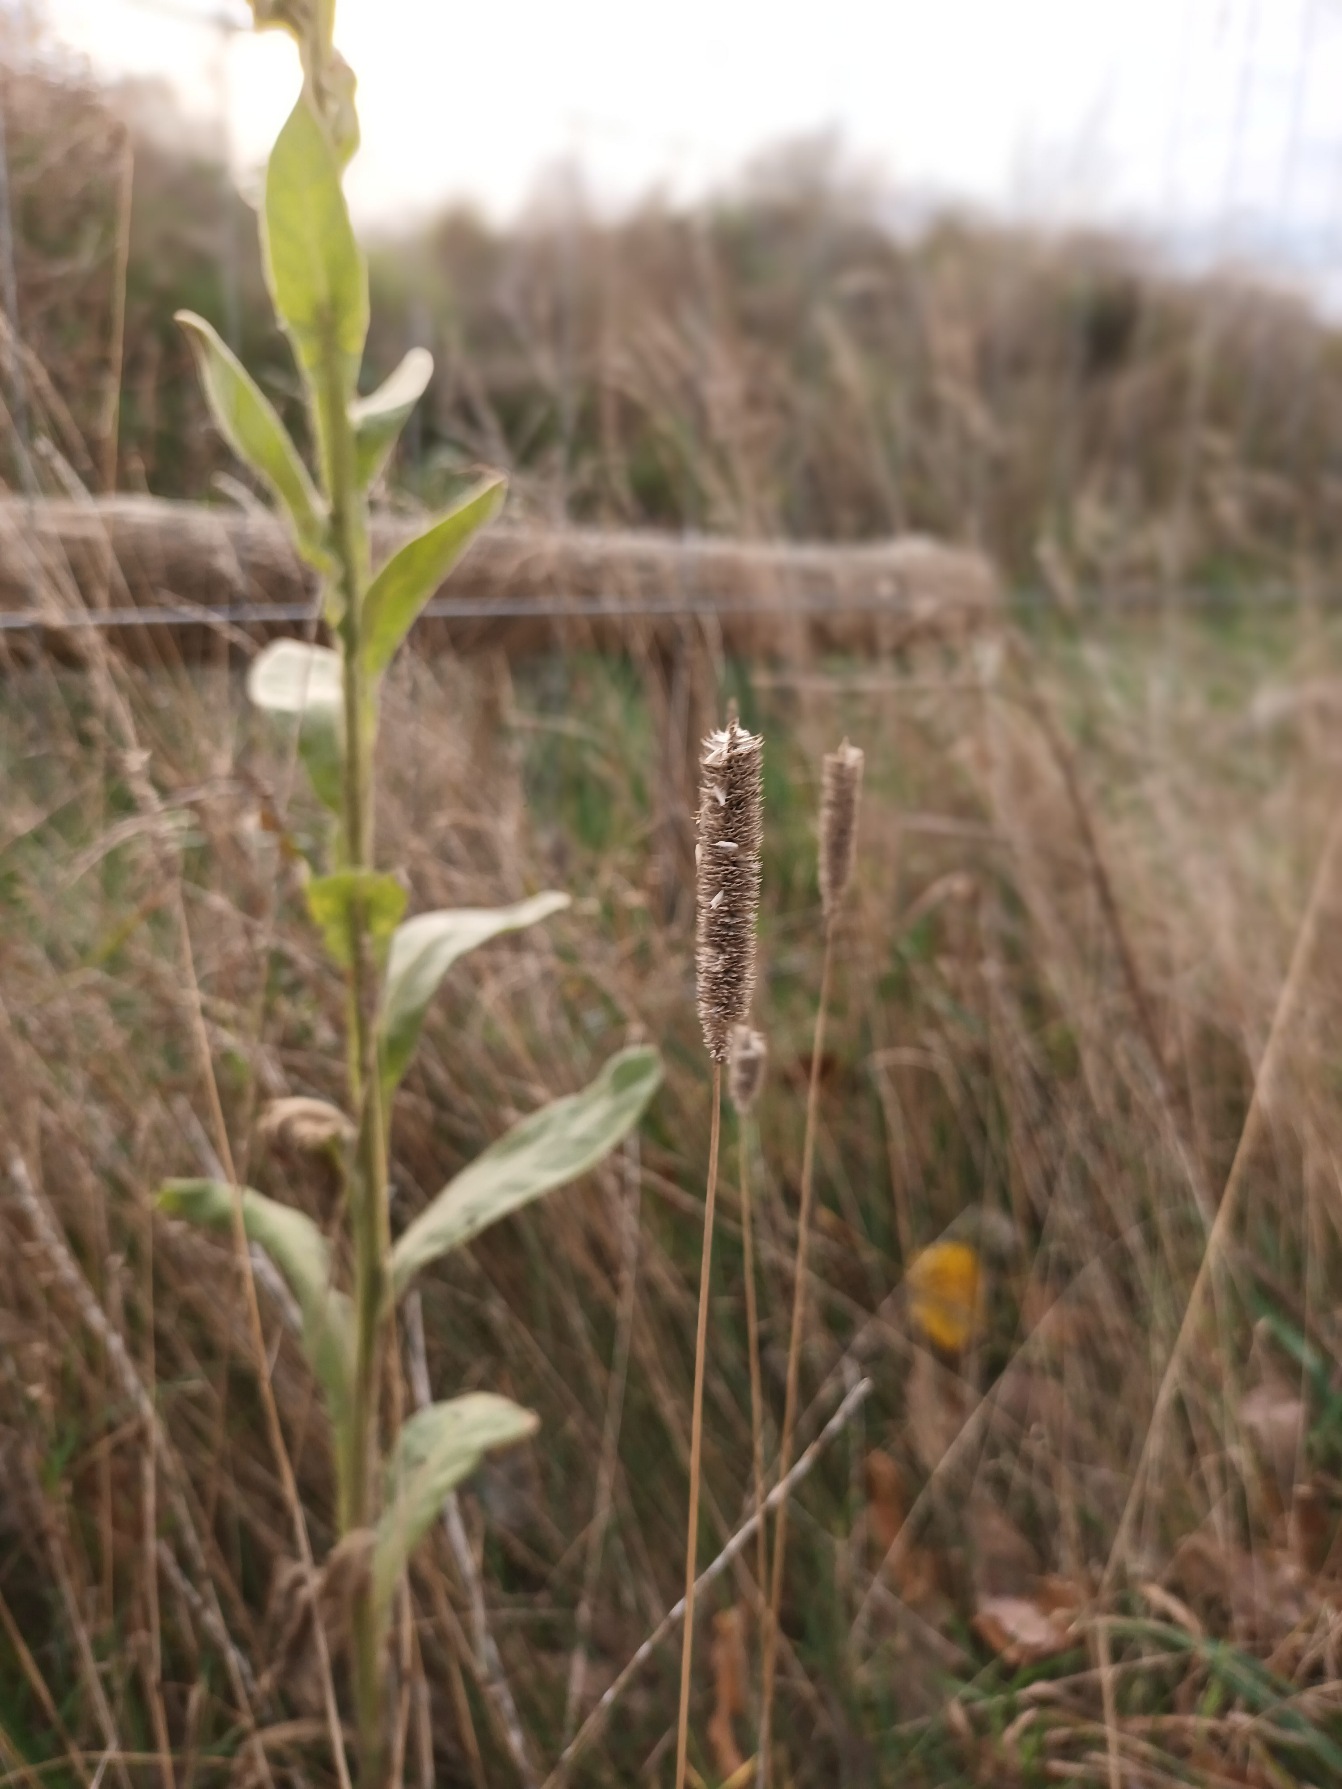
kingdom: Plantae
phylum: Tracheophyta
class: Liliopsida
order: Poales
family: Poaceae
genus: Phleum
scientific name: Phleum pratense
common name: Eng-rottehale
